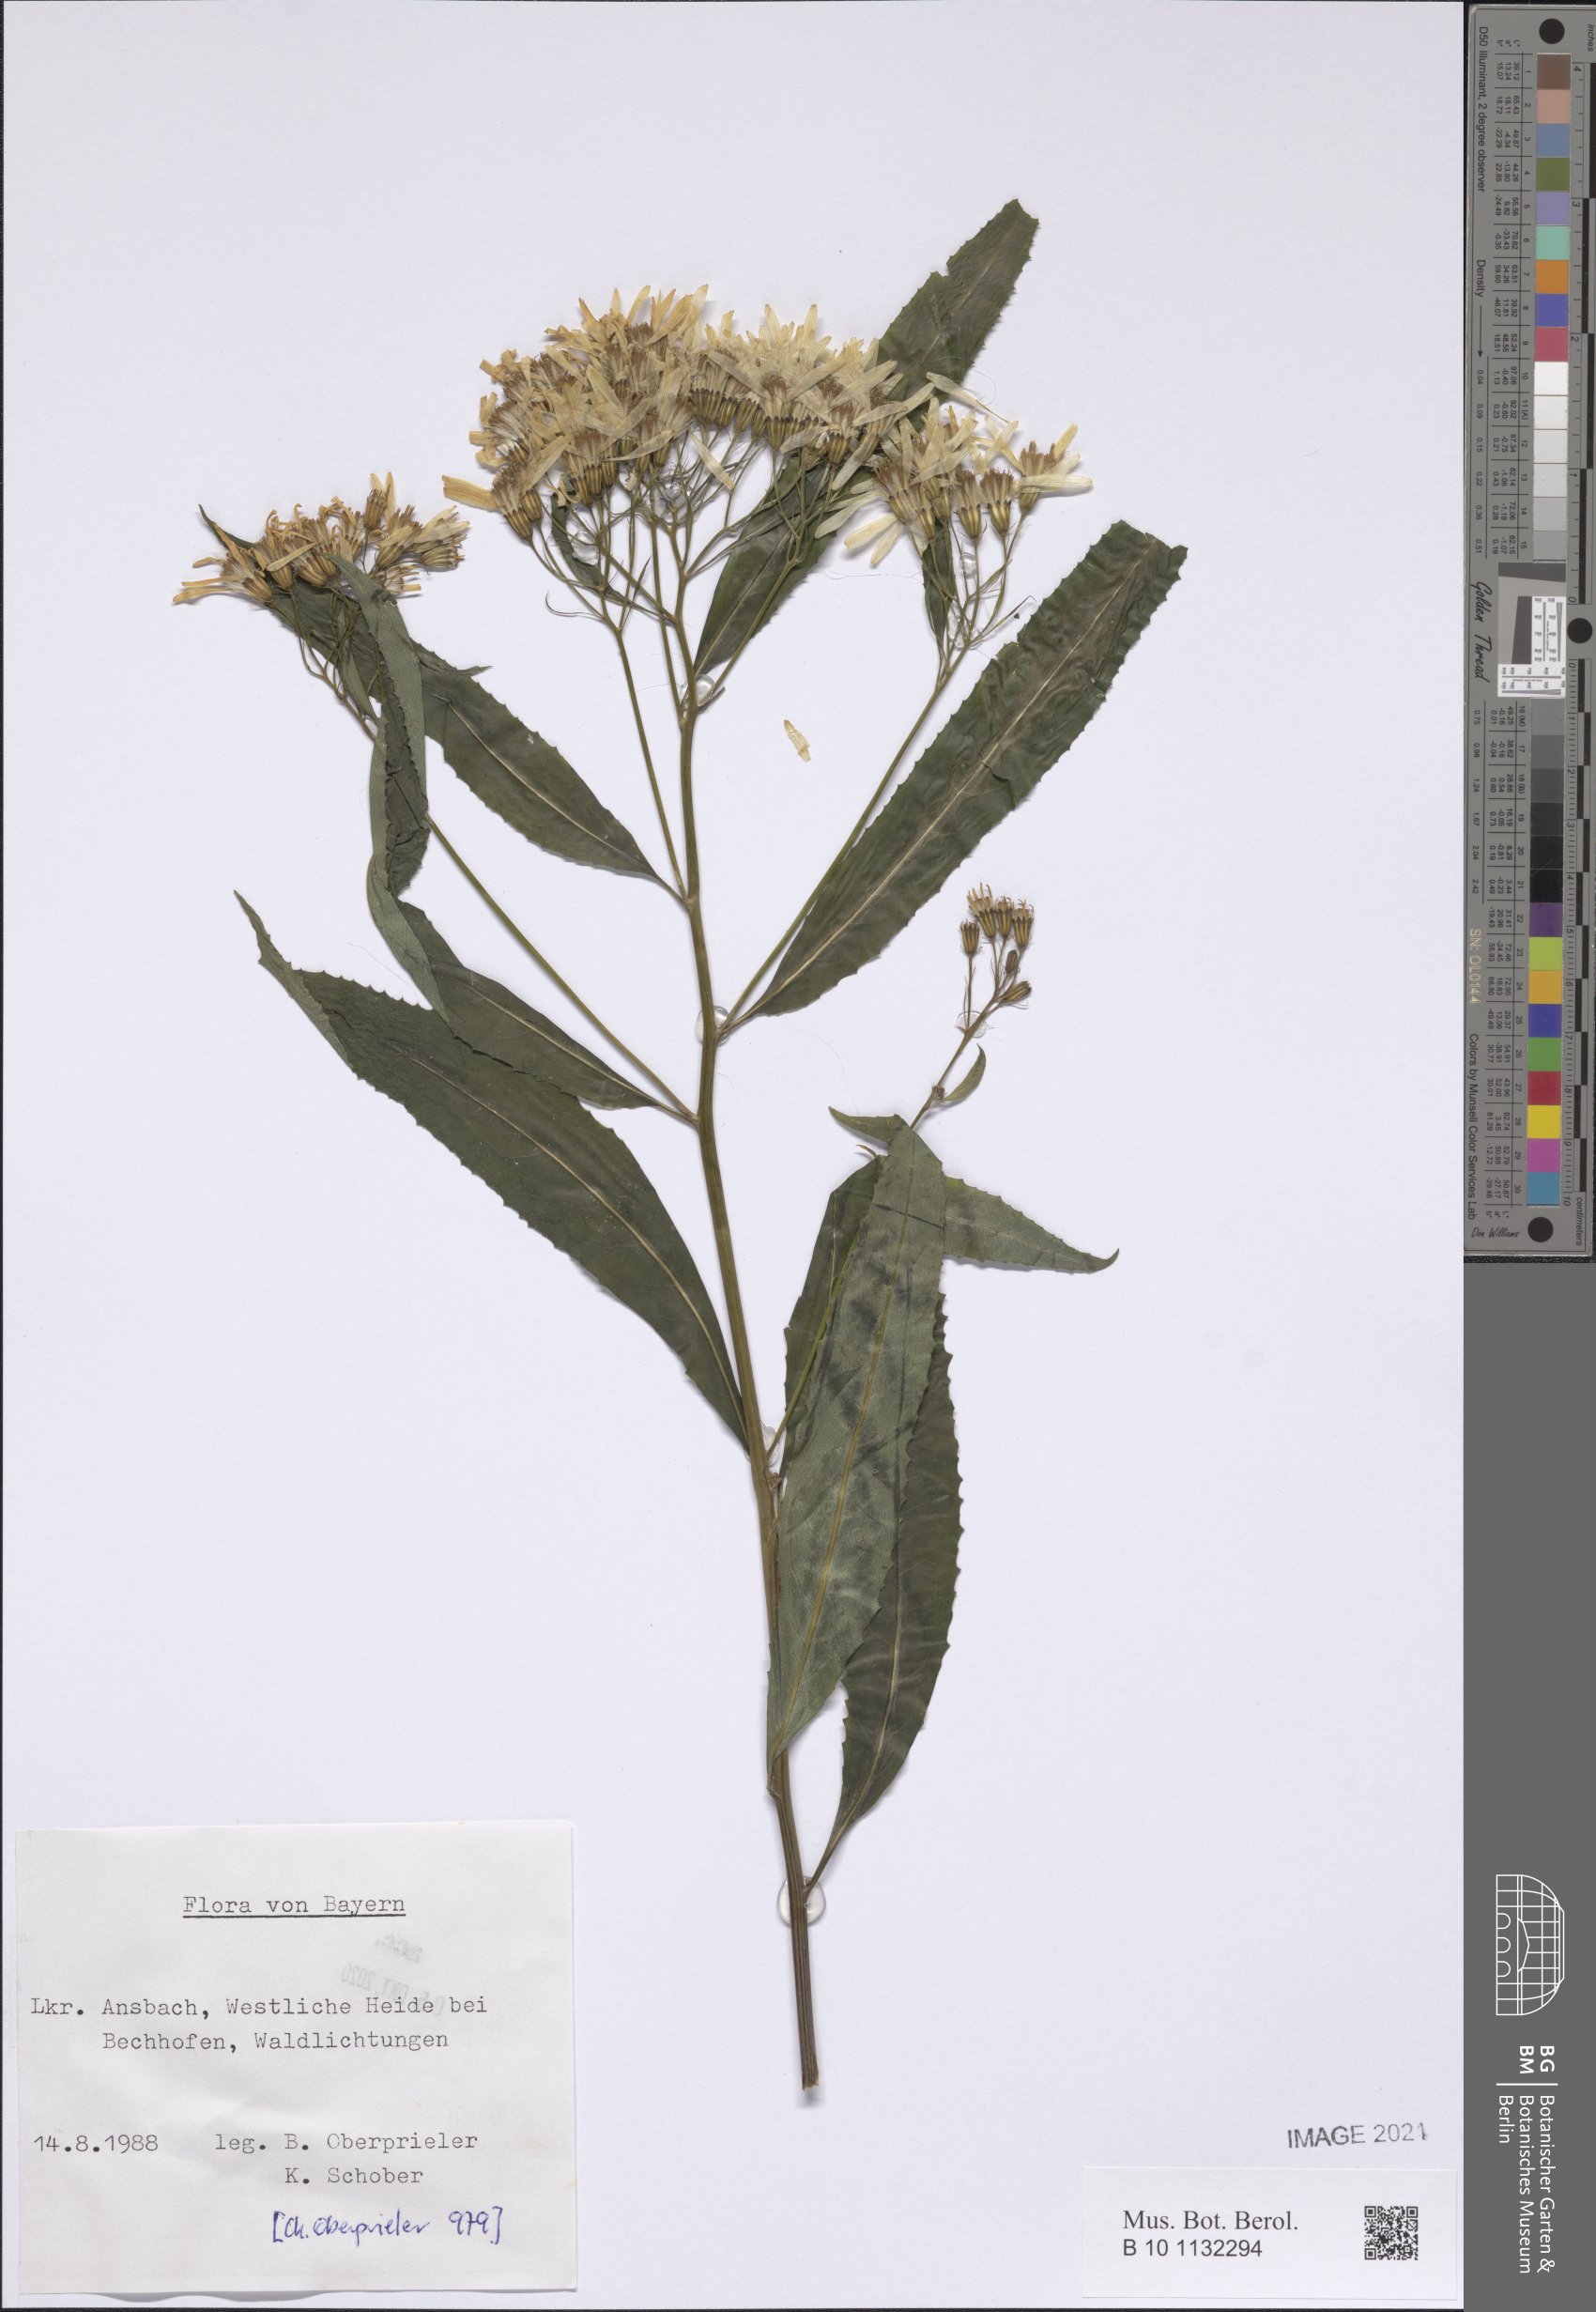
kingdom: Plantae
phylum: Tracheophyta
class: Magnoliopsida
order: Asterales
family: Asteraceae
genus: Senecio
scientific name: Senecio
